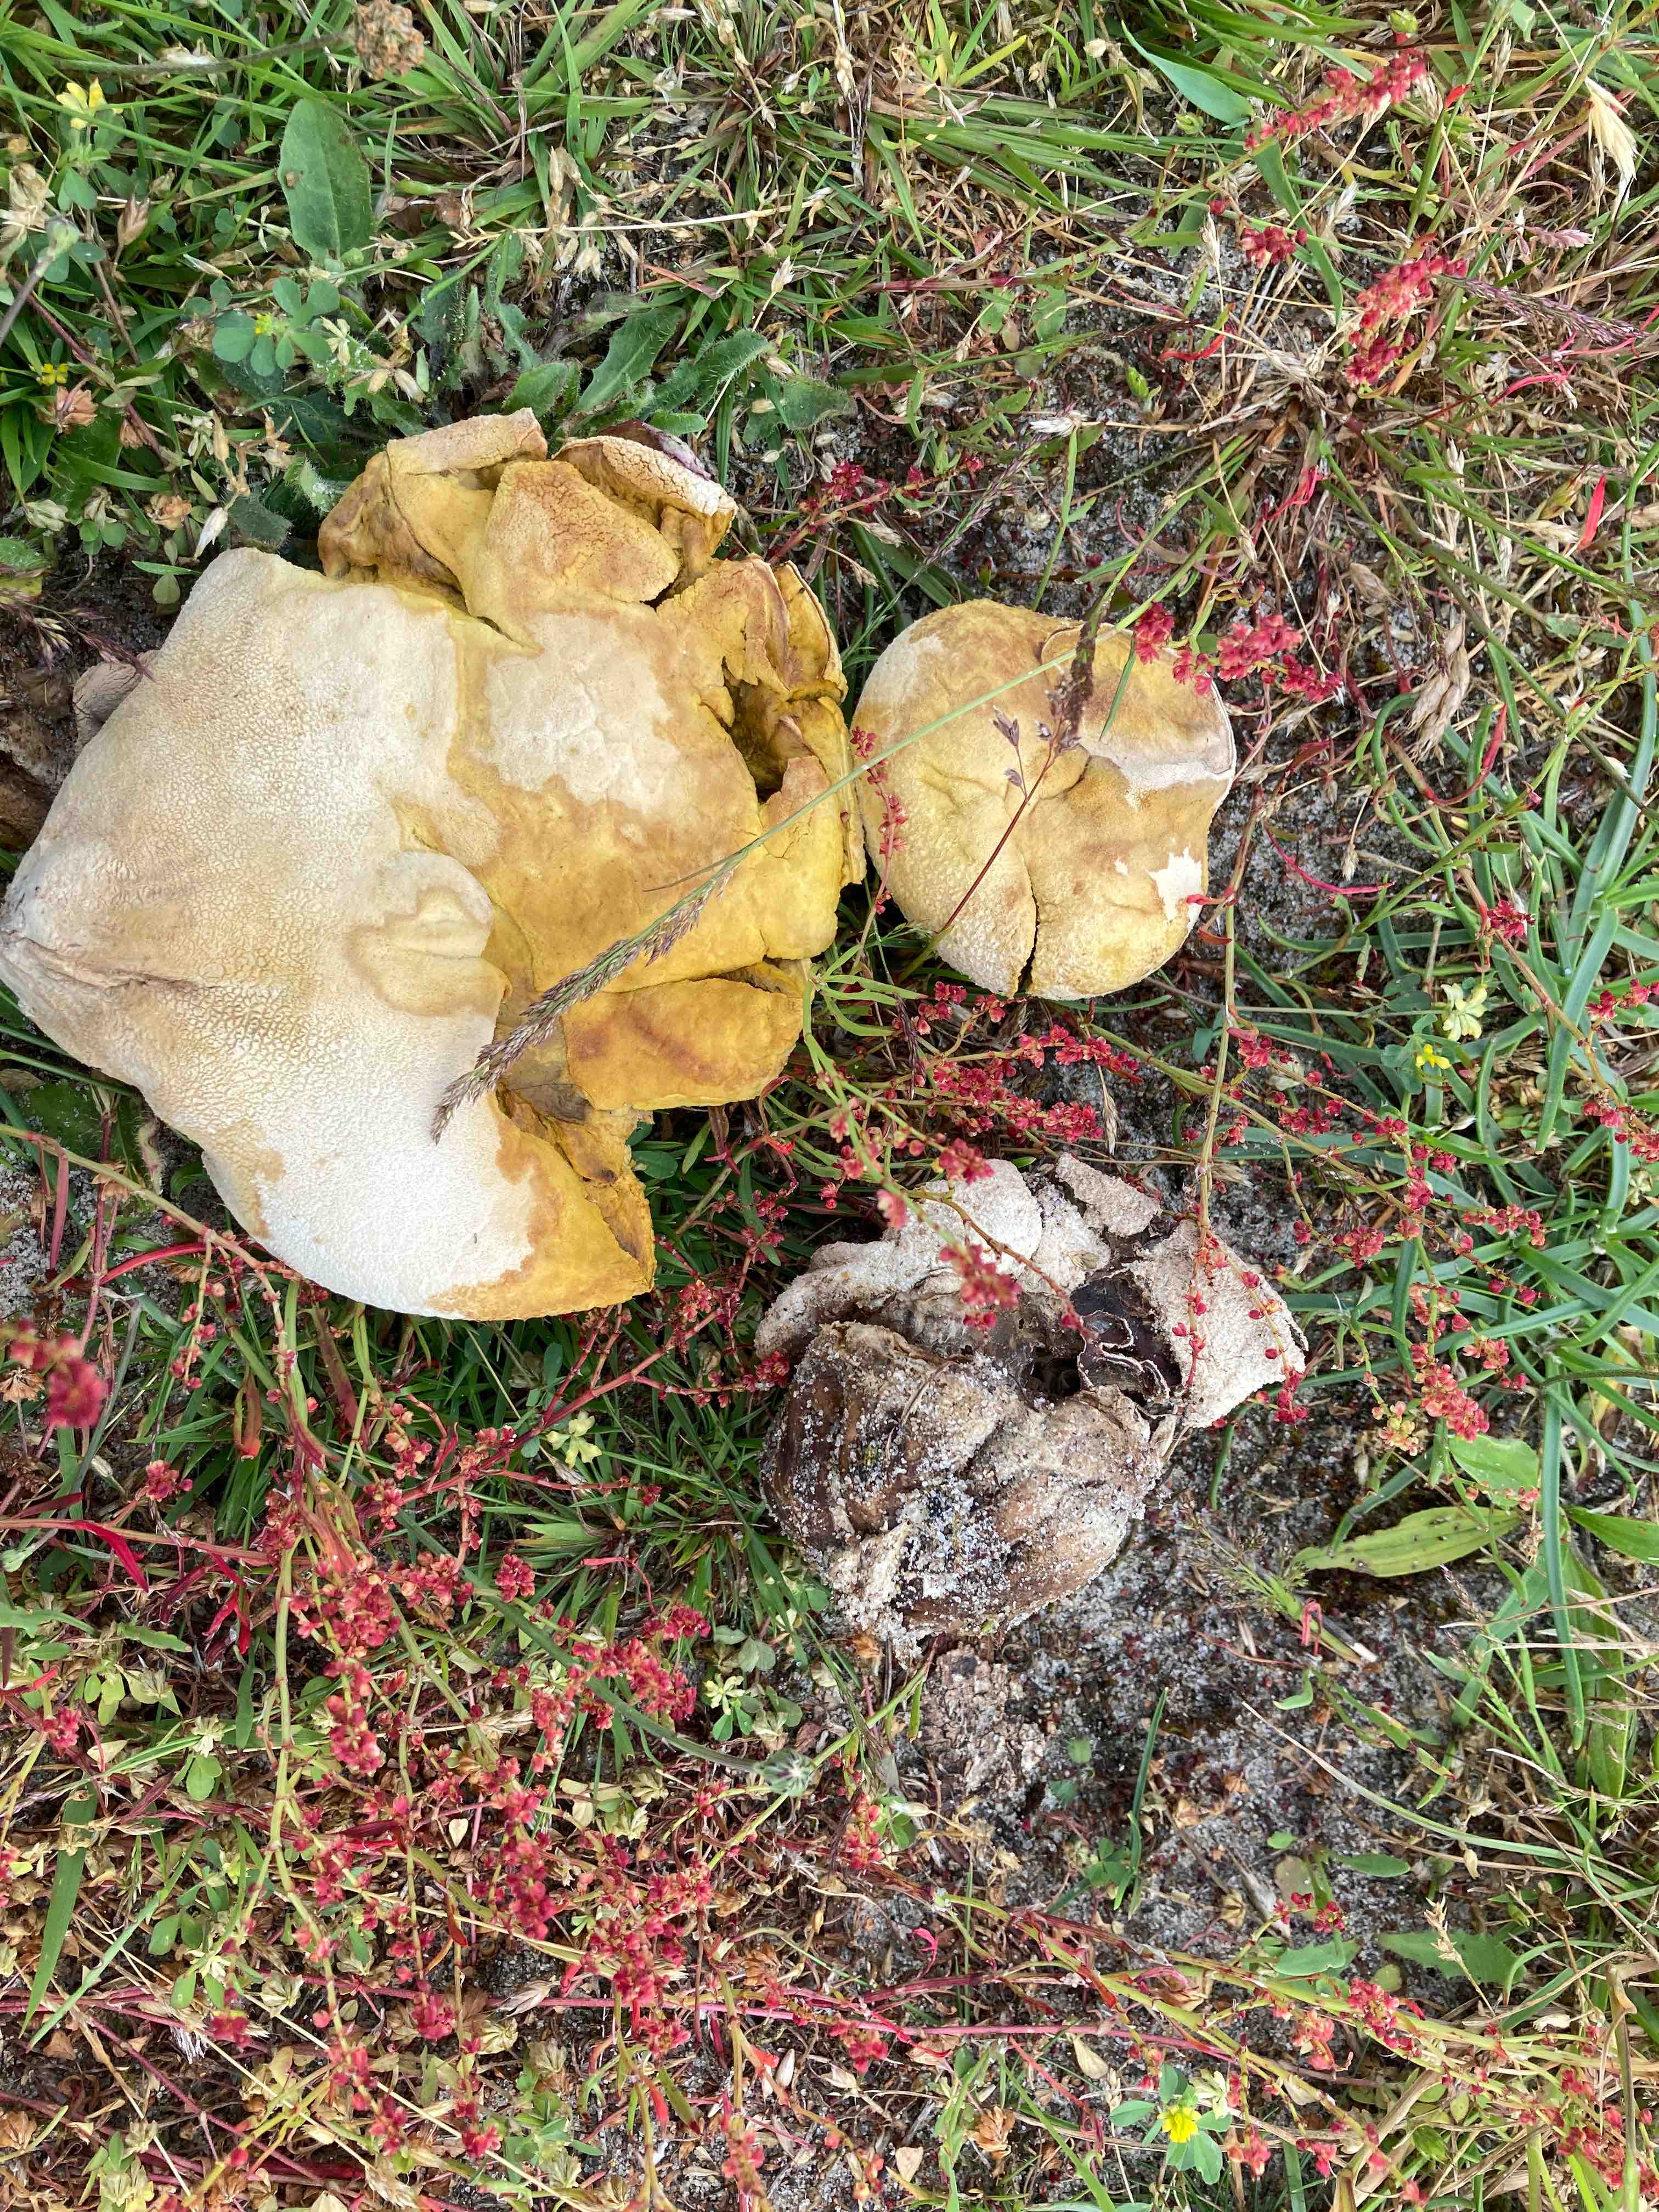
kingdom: Fungi
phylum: Basidiomycota
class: Agaricomycetes
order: Agaricales
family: Lycoperdaceae
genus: Bovistella
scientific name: Bovistella utriformis
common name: skællet støvbold
